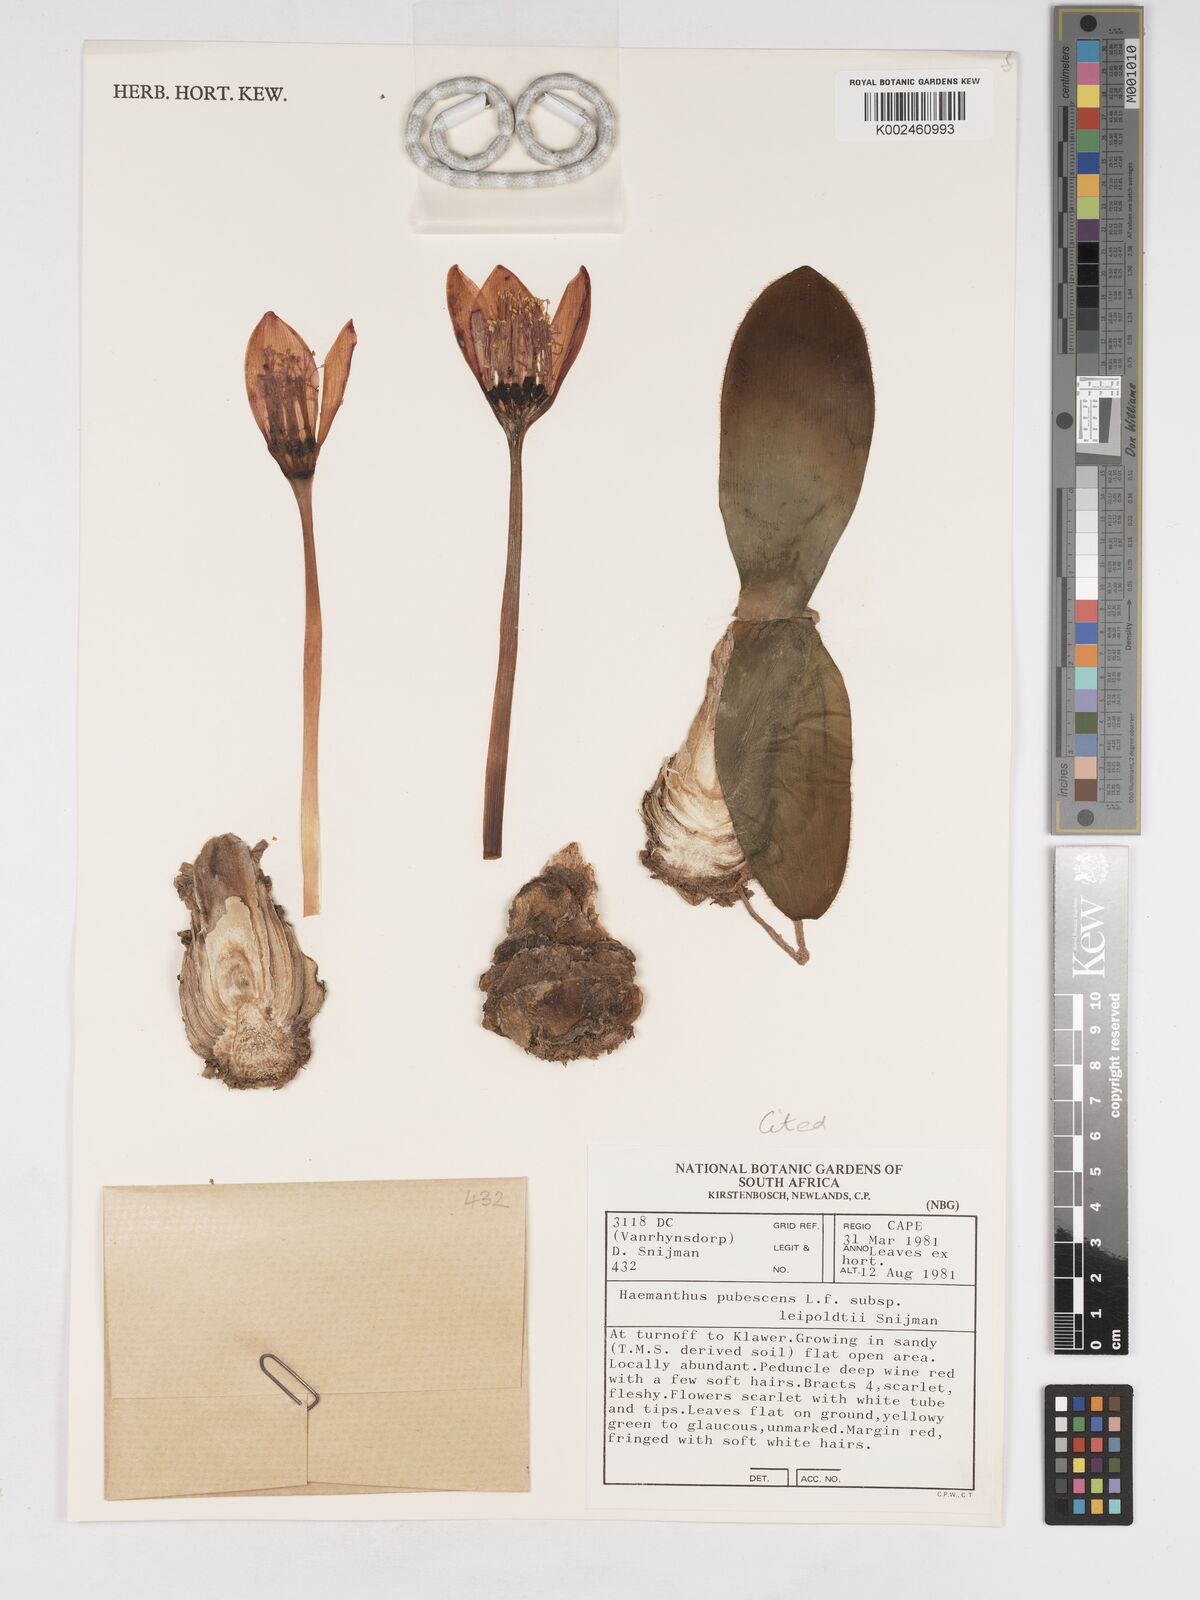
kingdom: Plantae
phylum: Tracheophyta
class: Liliopsida
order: Asparagales
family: Amaryllidaceae
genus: Haemanthus
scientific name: Haemanthus pubescens
